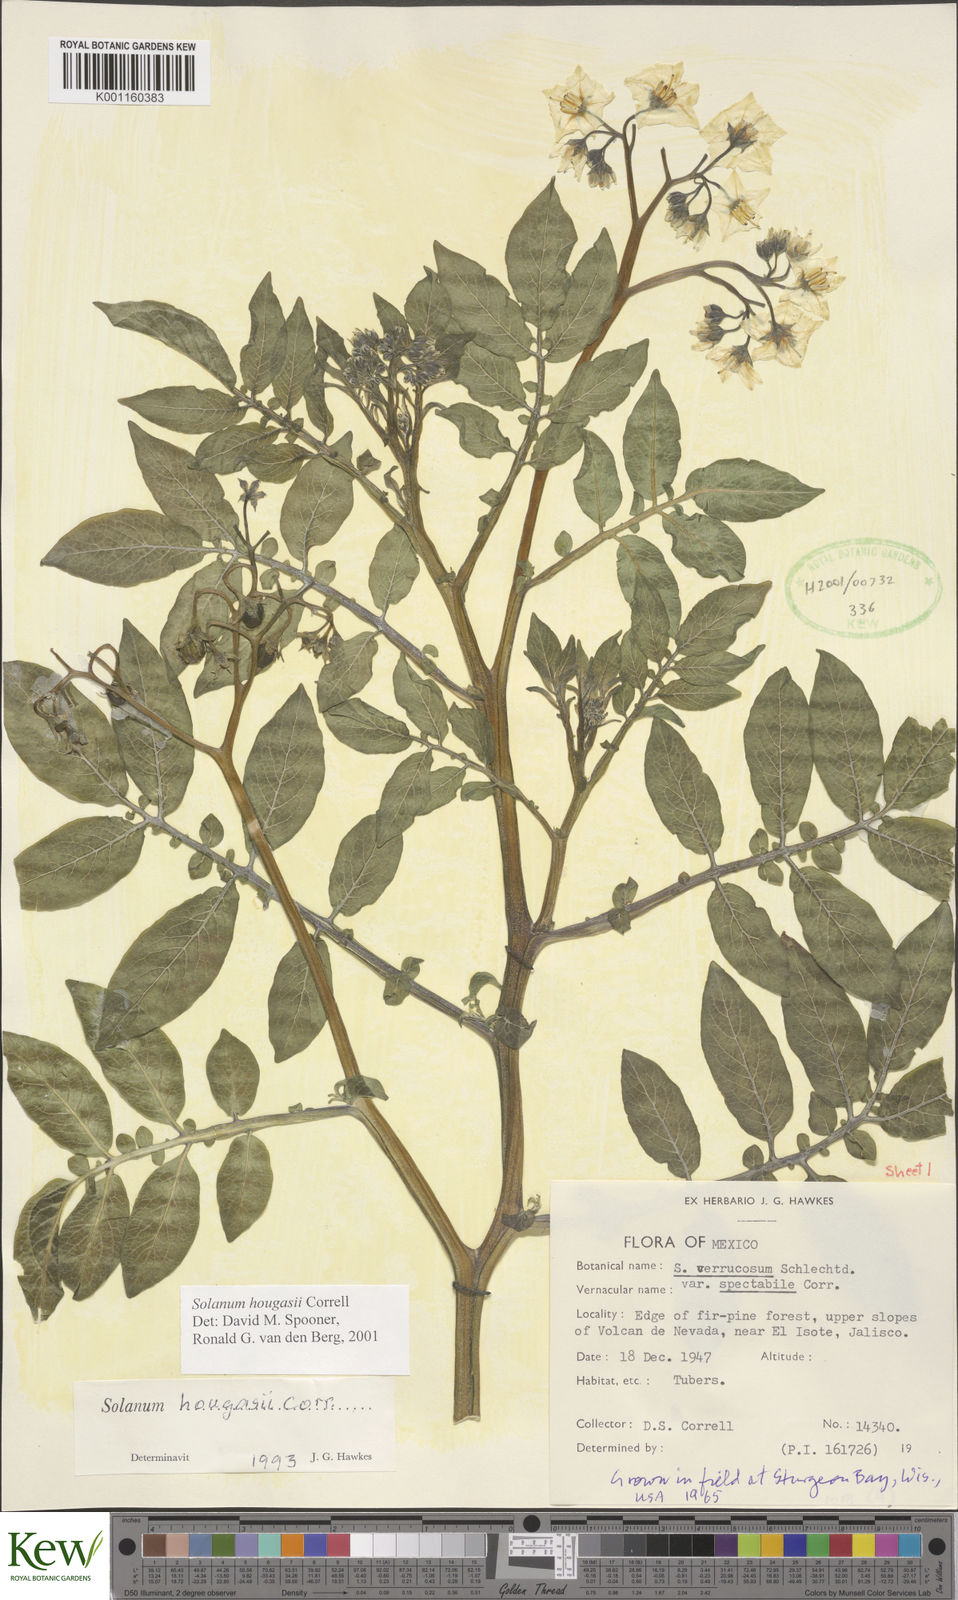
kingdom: Plantae
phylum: Tracheophyta
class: Magnoliopsida
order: Solanales
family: Solanaceae
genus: Solanum
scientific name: Solanum hougasii
